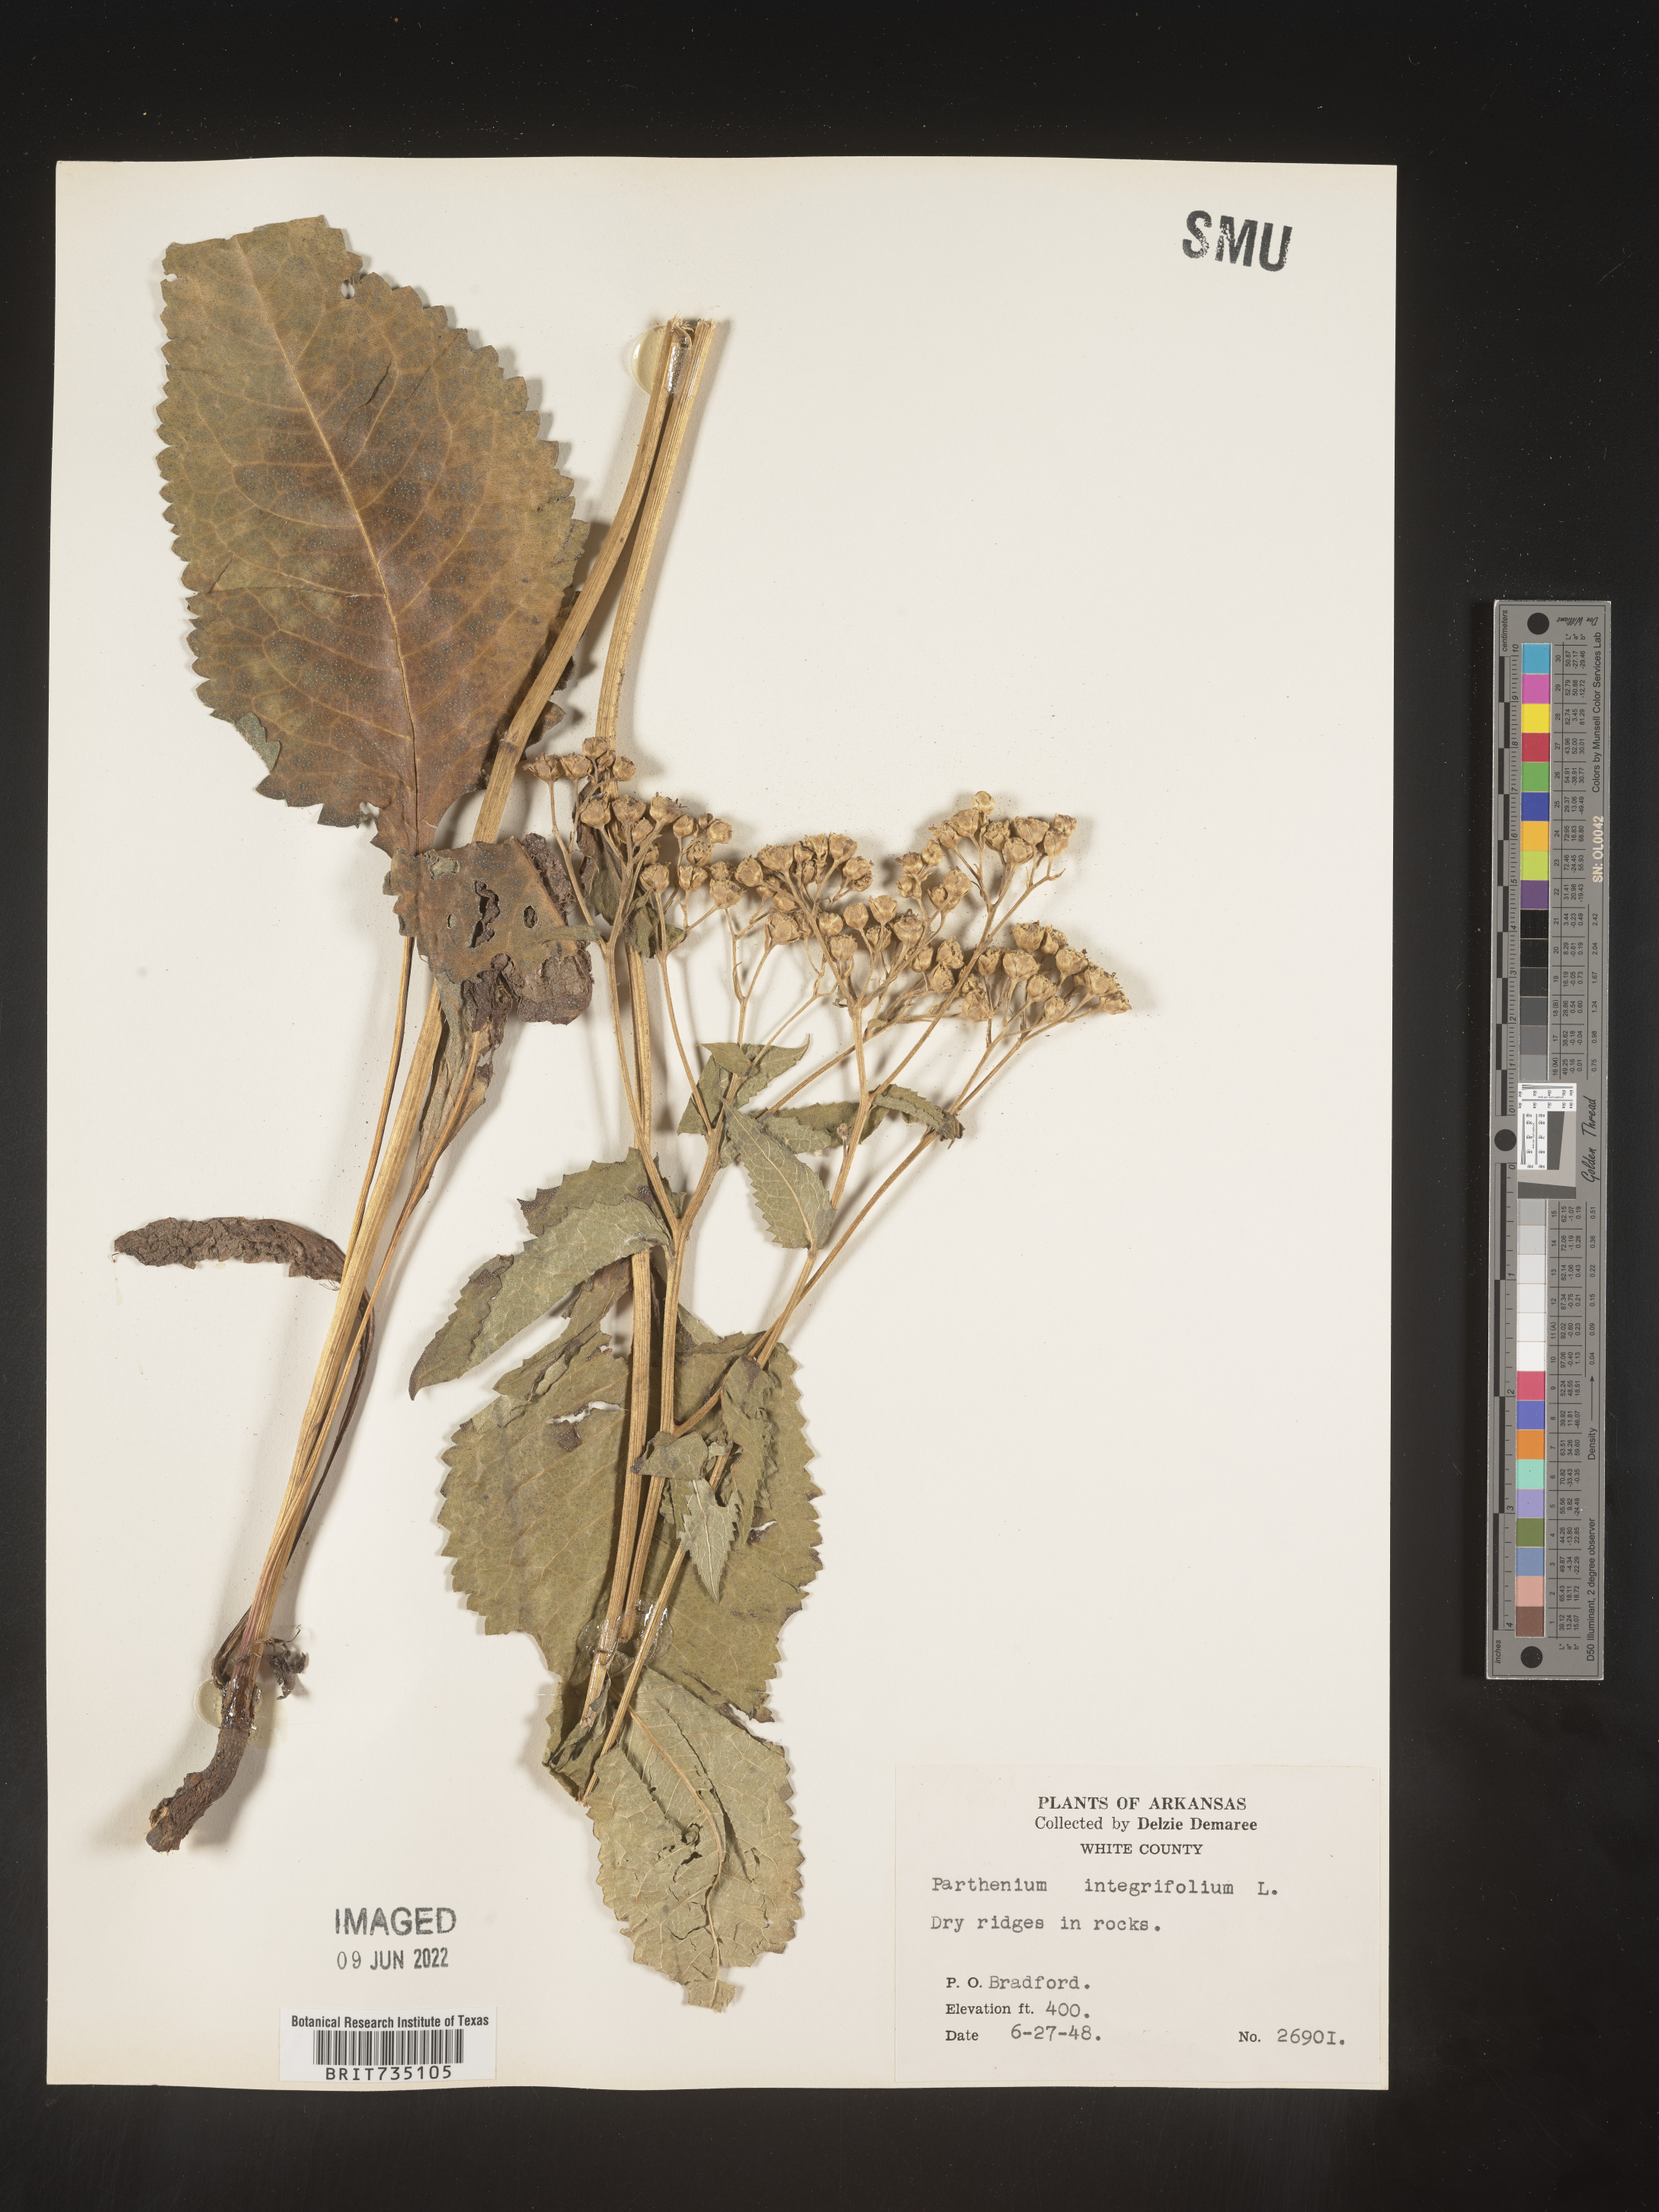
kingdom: Plantae
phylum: Tracheophyta
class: Magnoliopsida
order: Asterales
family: Asteraceae
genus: Parthenium
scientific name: Parthenium integrifolium
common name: American feverfew
